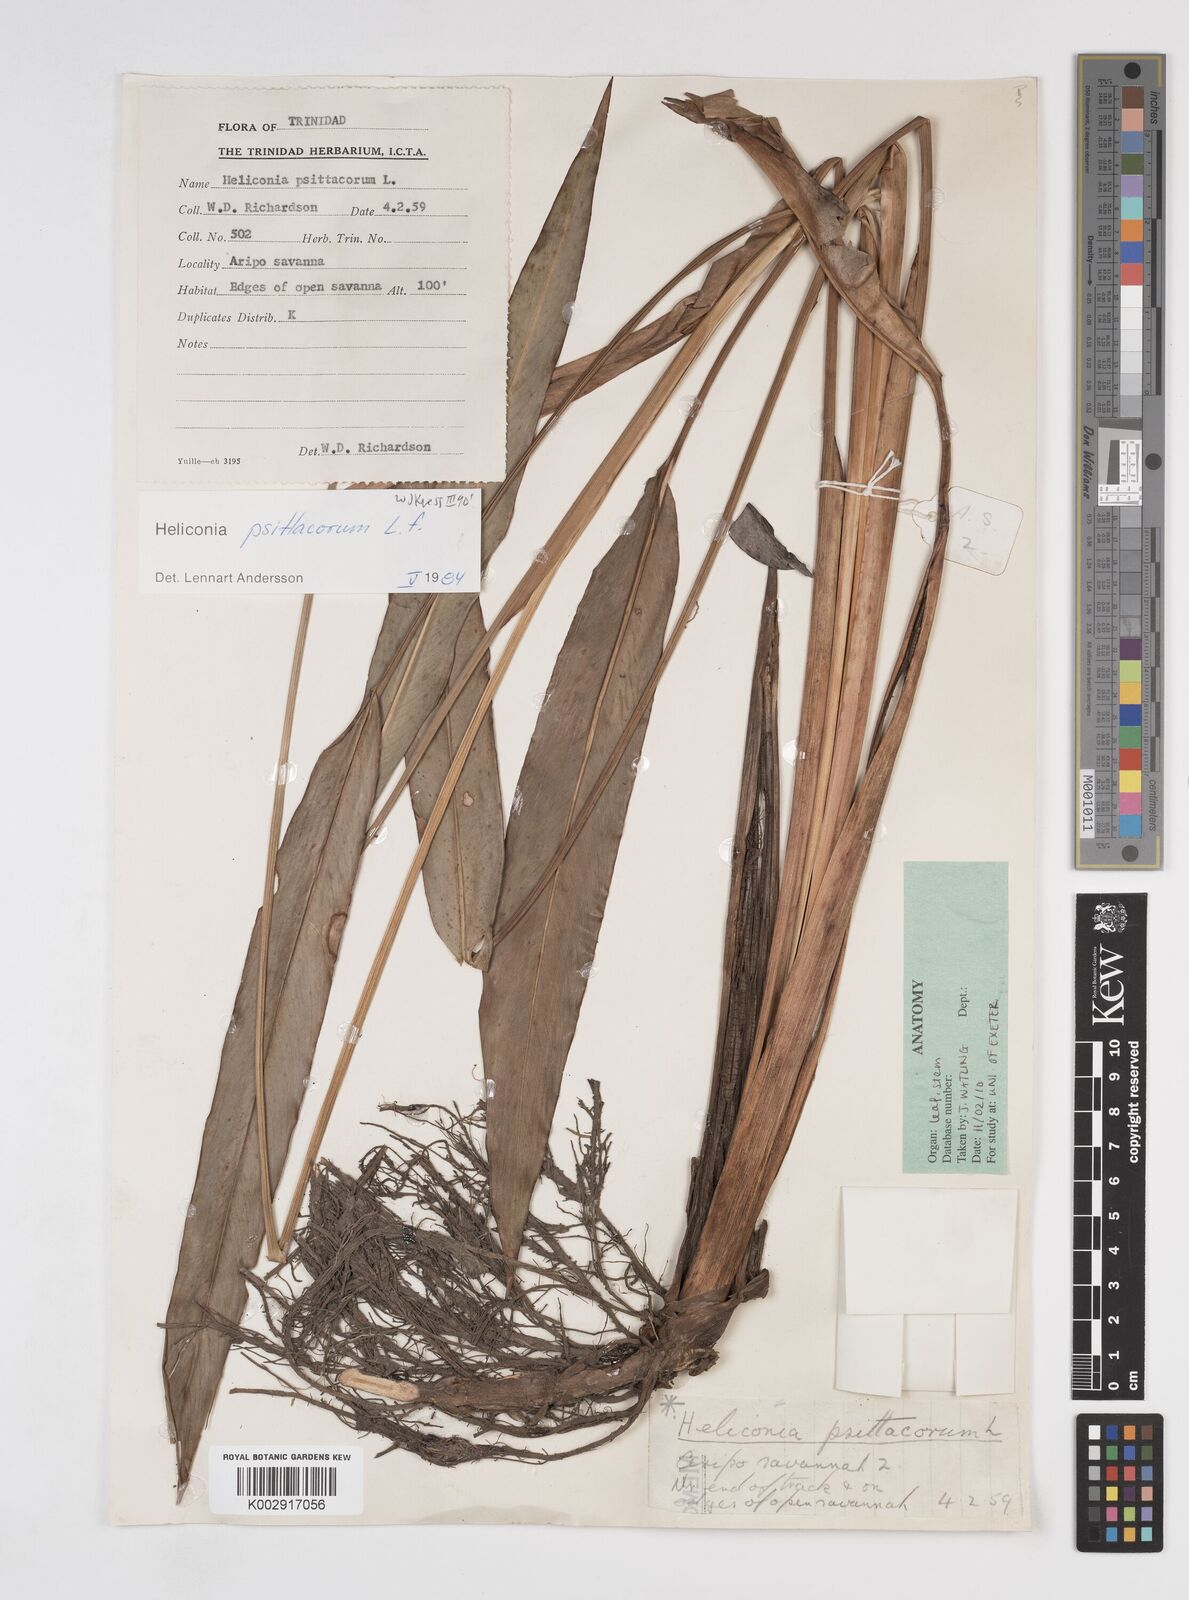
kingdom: Plantae
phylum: Tracheophyta
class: Liliopsida
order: Zingiberales
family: Heliconiaceae
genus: Heliconia
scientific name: Heliconia psittacorum
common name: Parrot's-flower
